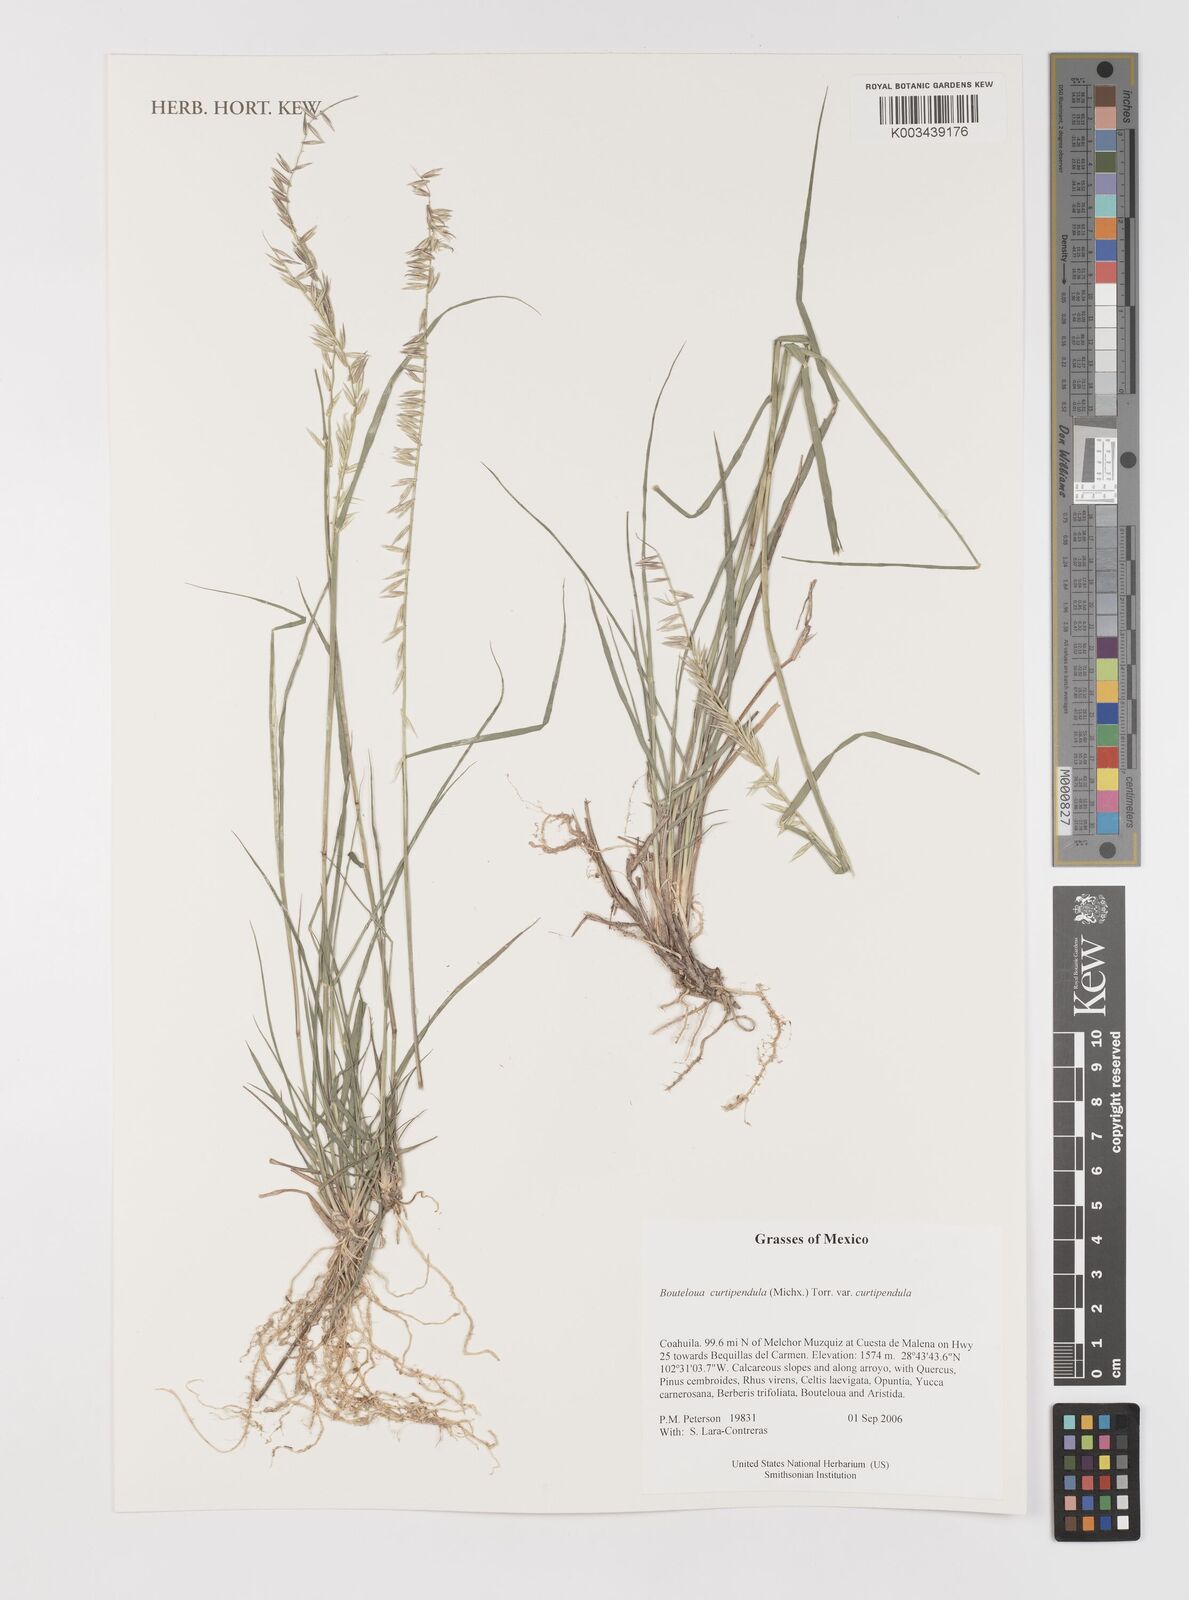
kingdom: Plantae
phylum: Tracheophyta
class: Liliopsida
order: Poales
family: Poaceae
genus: Bouteloua
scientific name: Bouteloua curtipendula
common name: Side-oats grama
